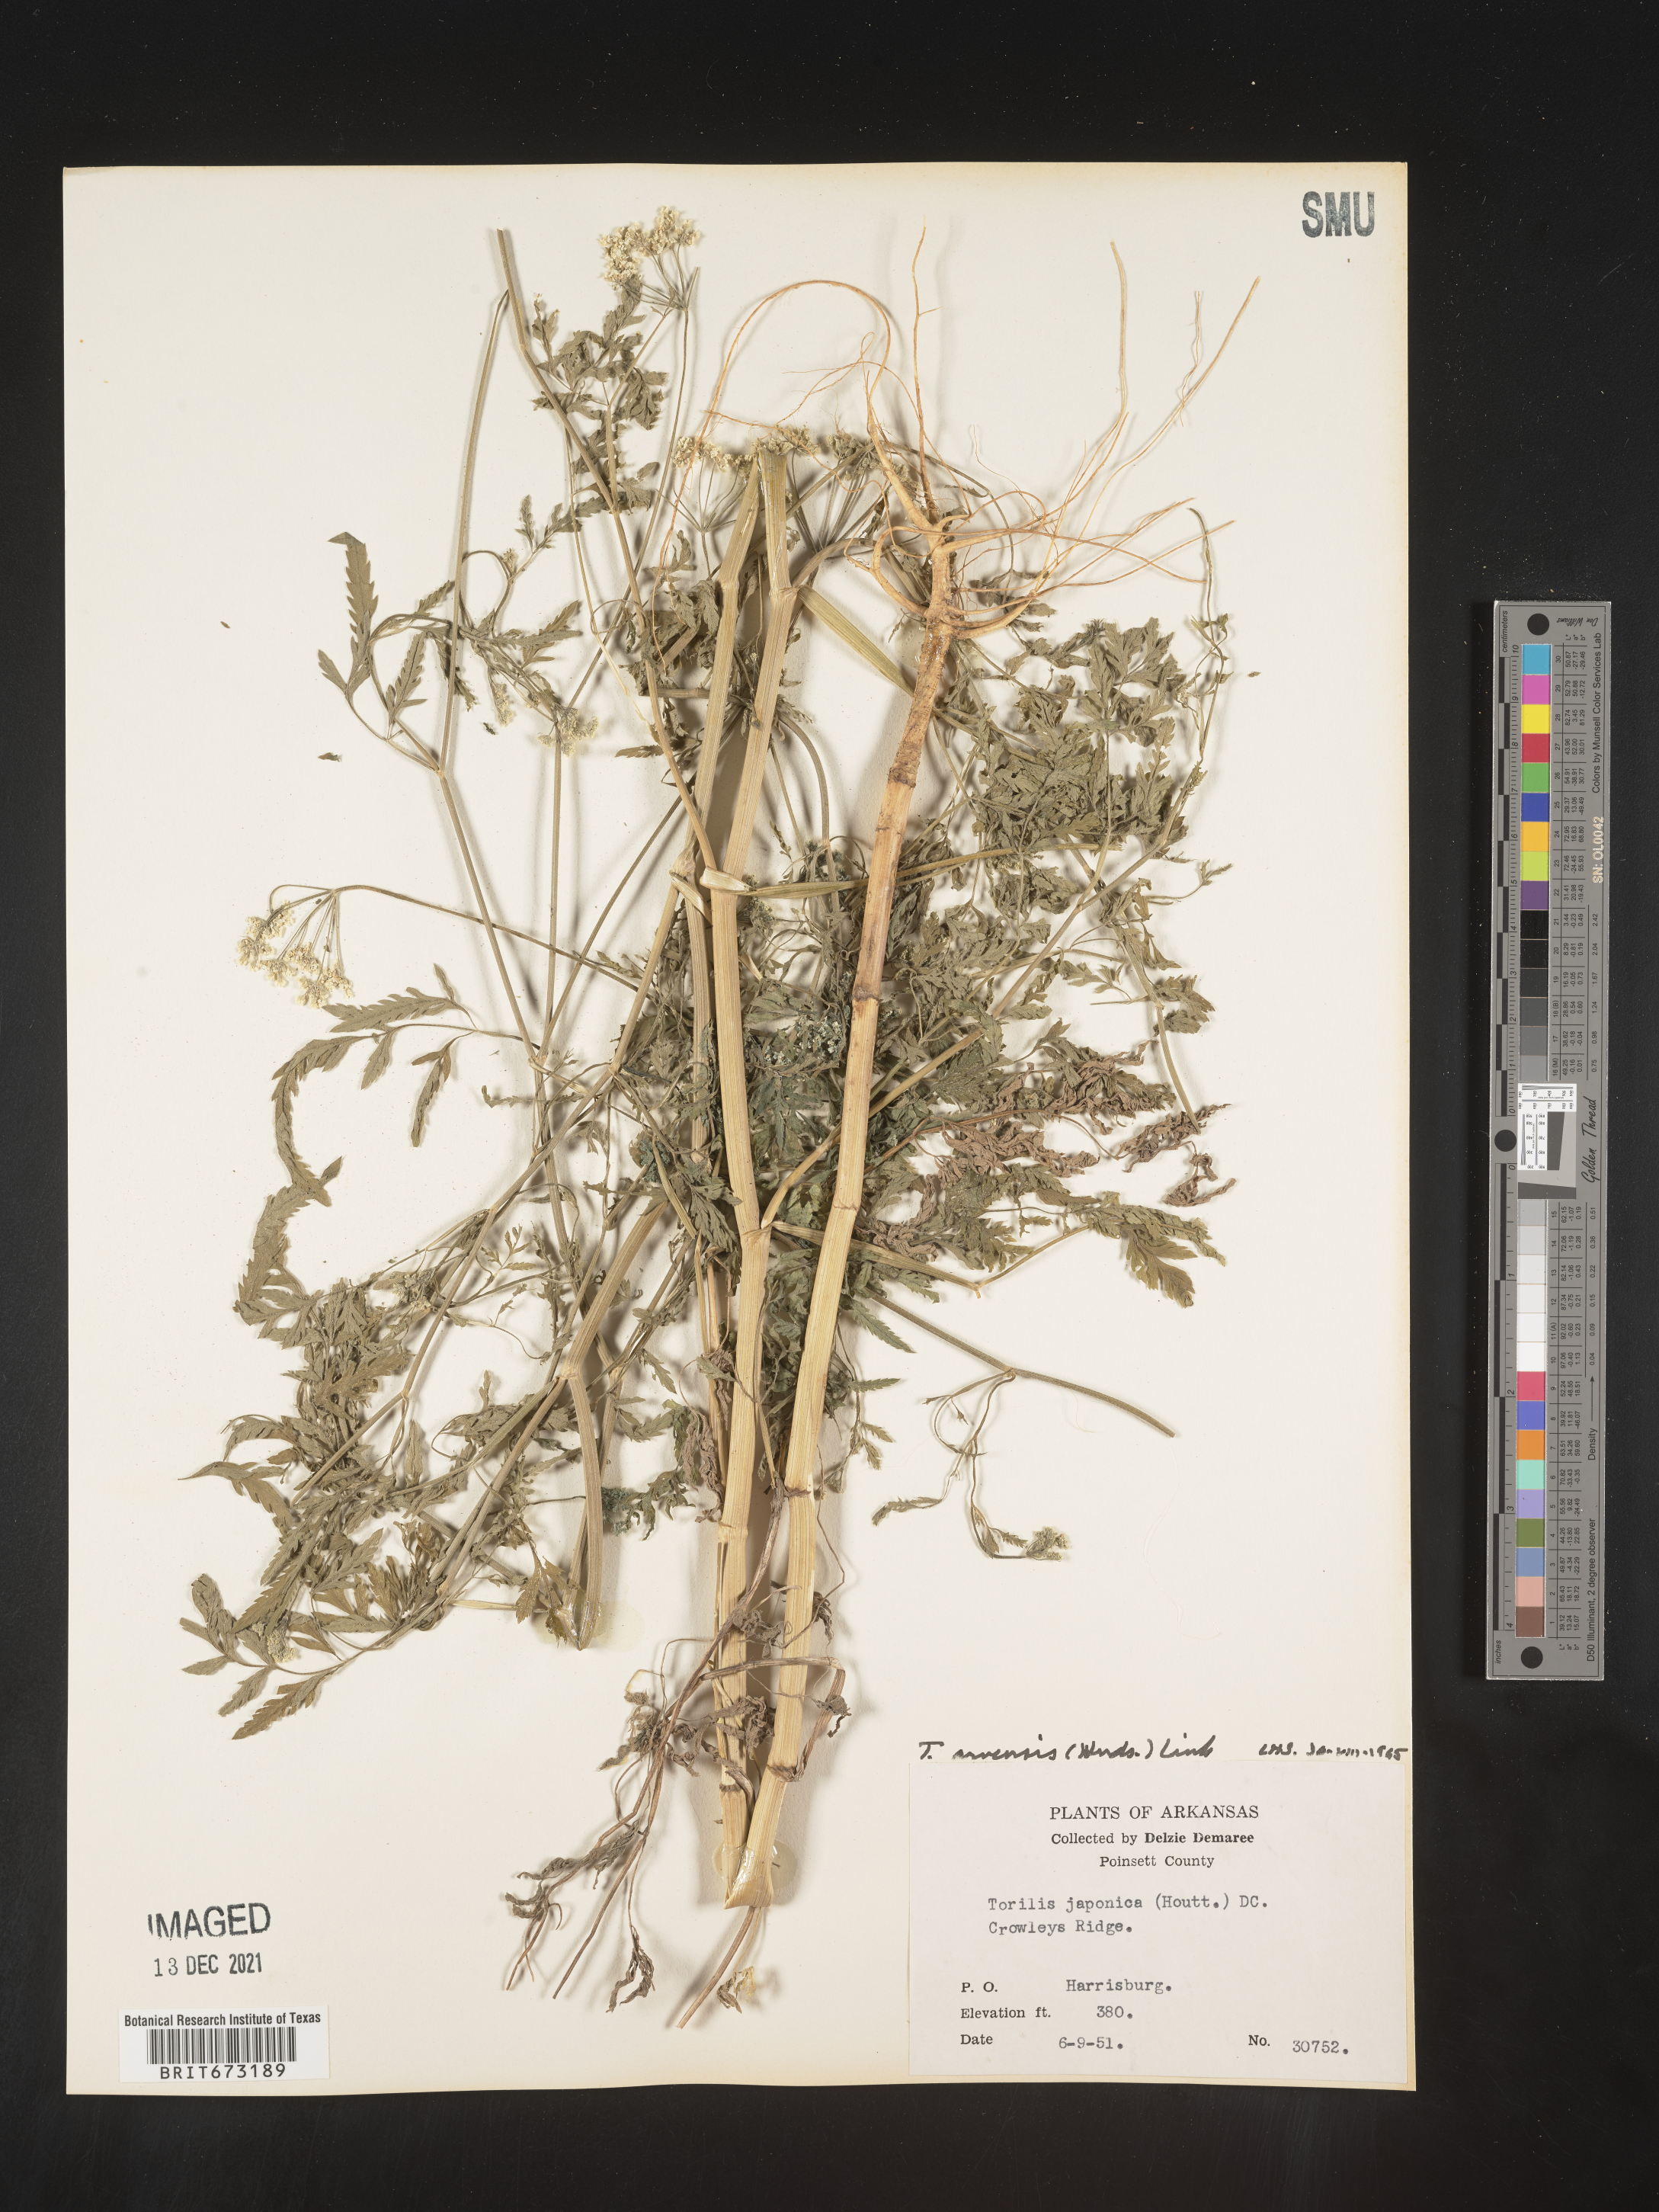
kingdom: Plantae
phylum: Tracheophyta
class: Magnoliopsida
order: Apiales
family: Apiaceae
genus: Torilis
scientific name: Torilis arvensis
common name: Spreading hedge-parsley
